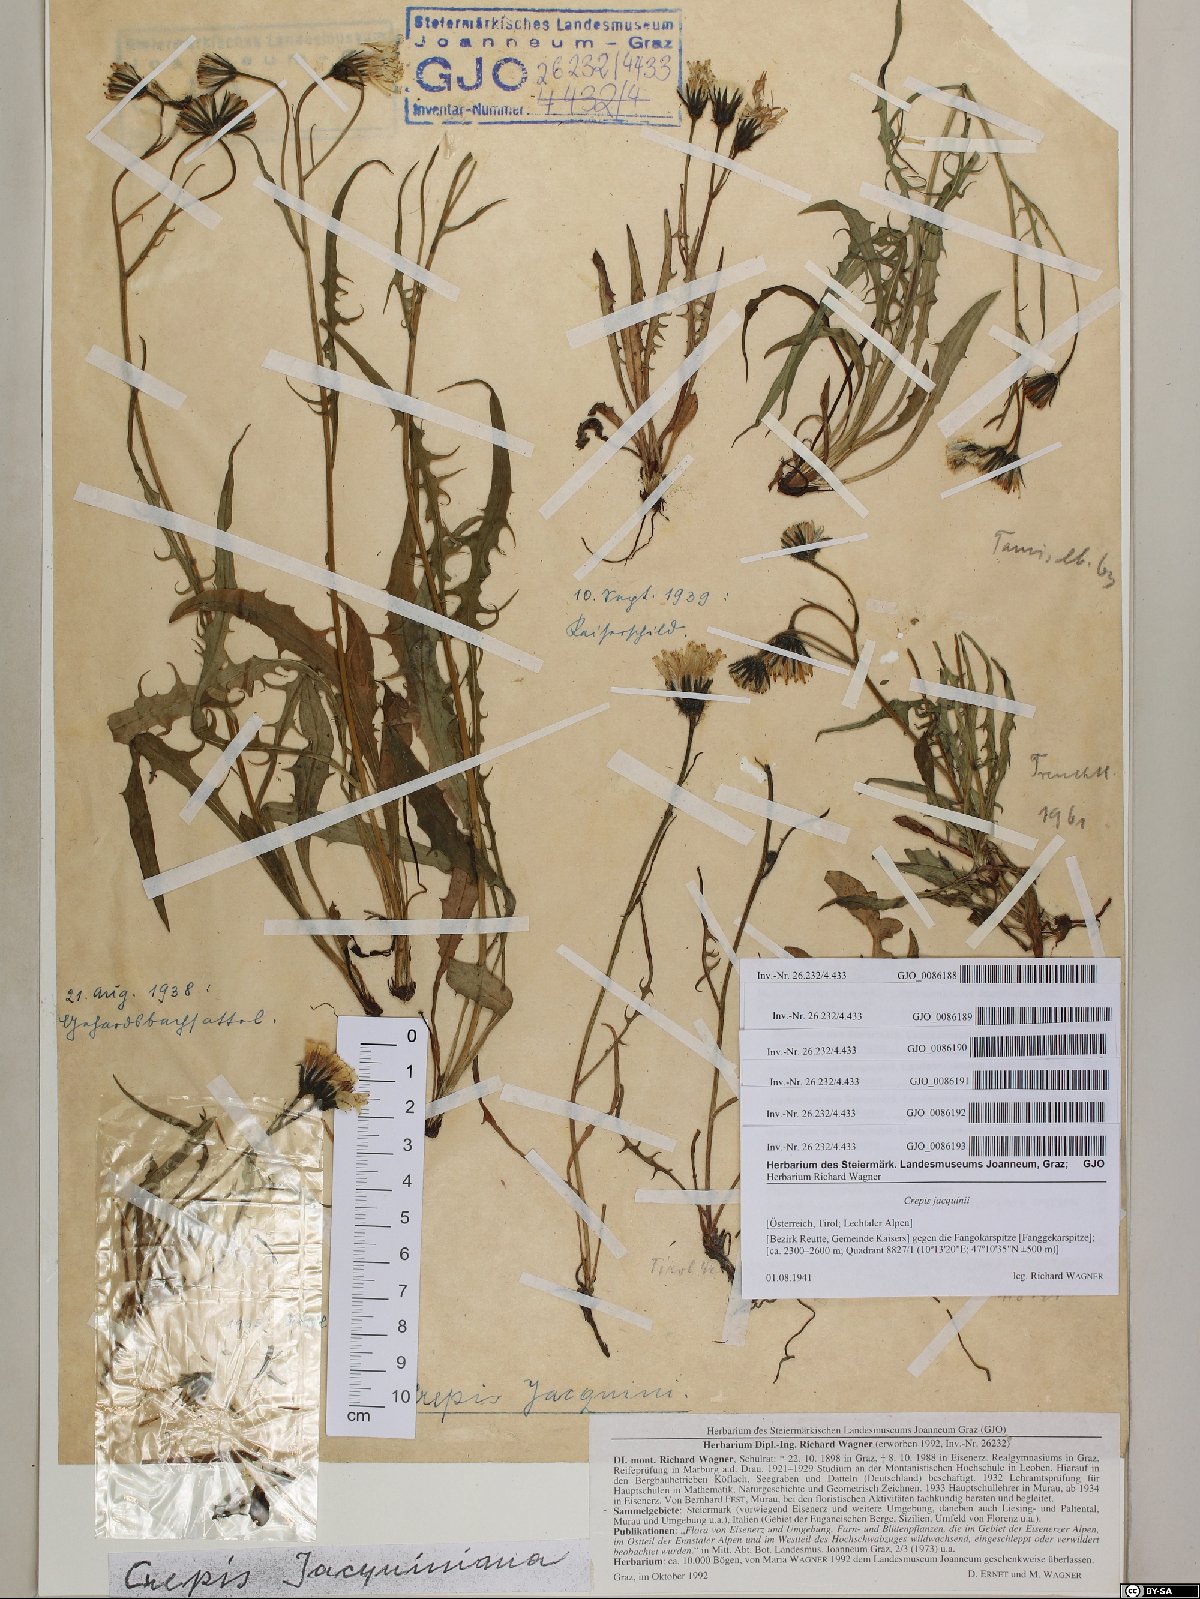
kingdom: Plantae
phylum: Tracheophyta
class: Magnoliopsida
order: Asterales
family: Asteraceae
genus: Crepis
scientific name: Crepis jacquinii
